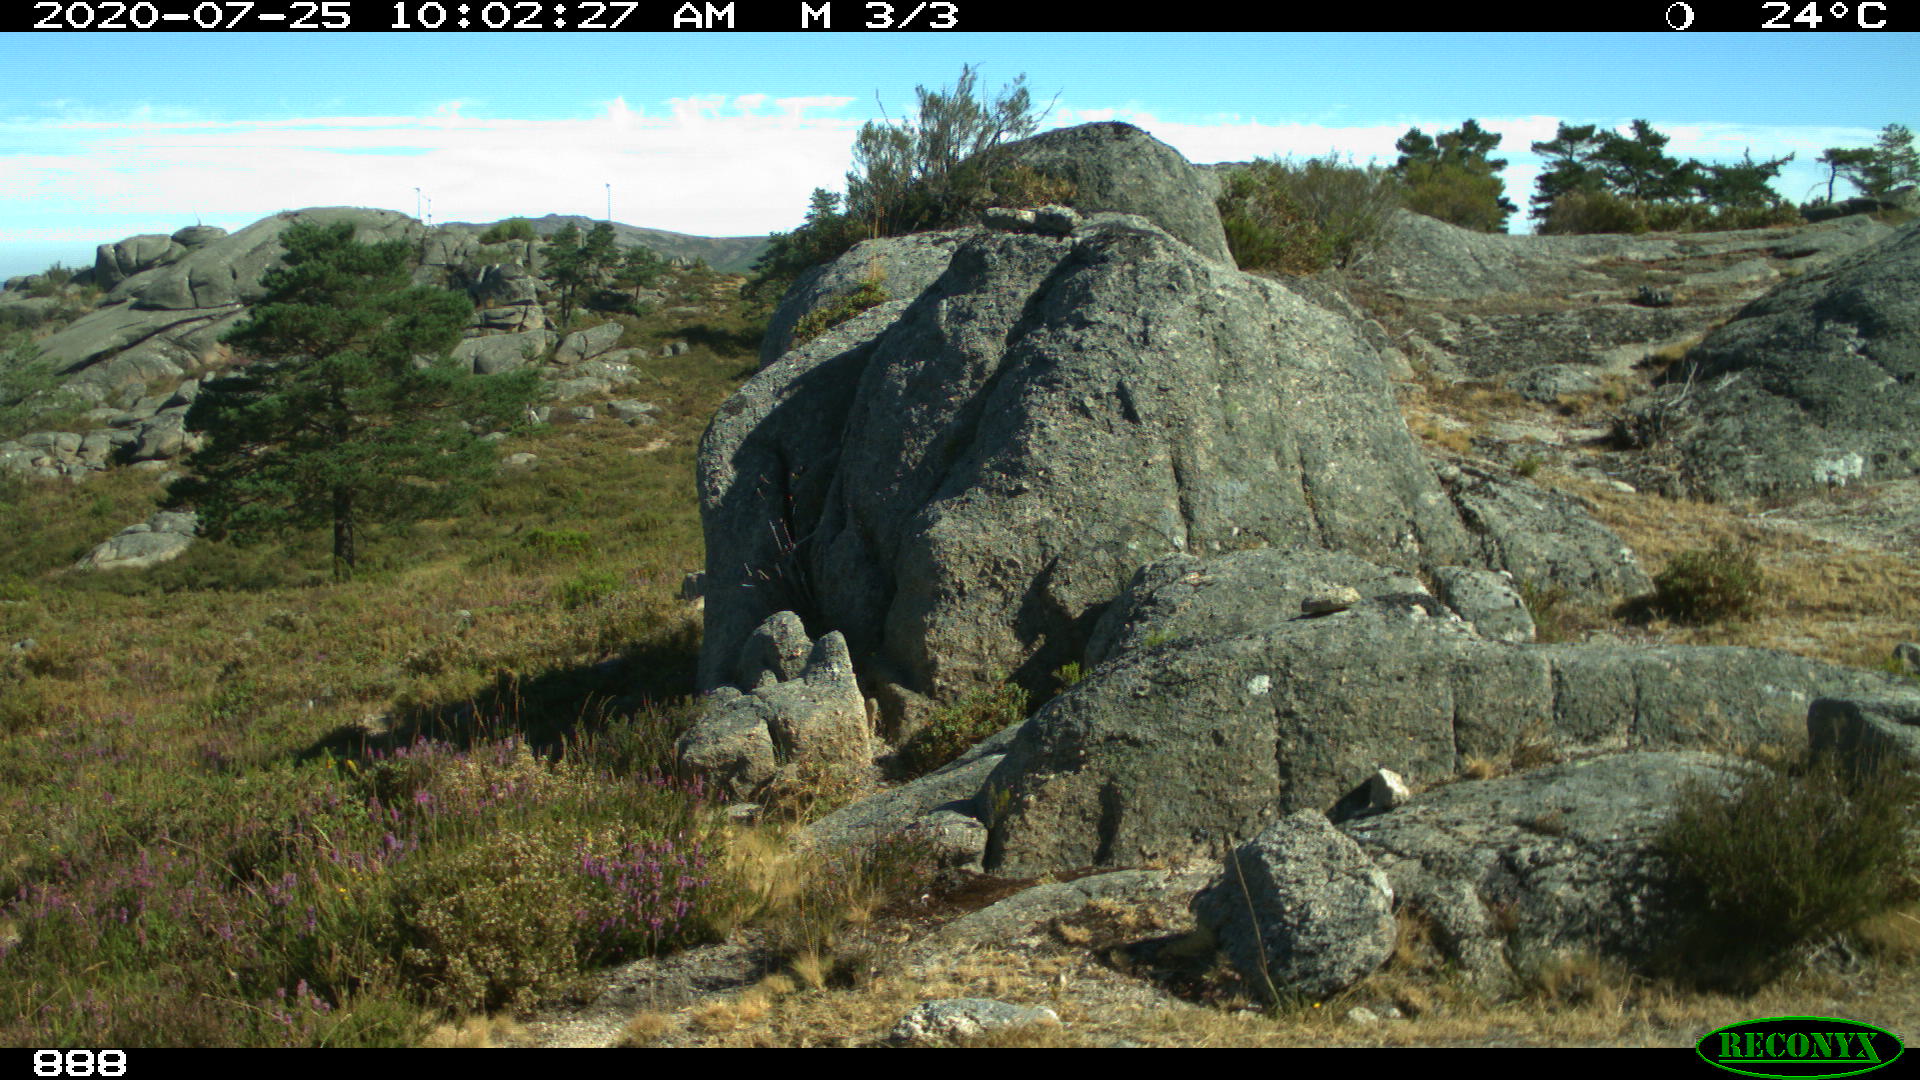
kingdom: Animalia
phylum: Chordata
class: Mammalia
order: Perissodactyla
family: Equidae
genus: Equus
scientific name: Equus caballus
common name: Horse
